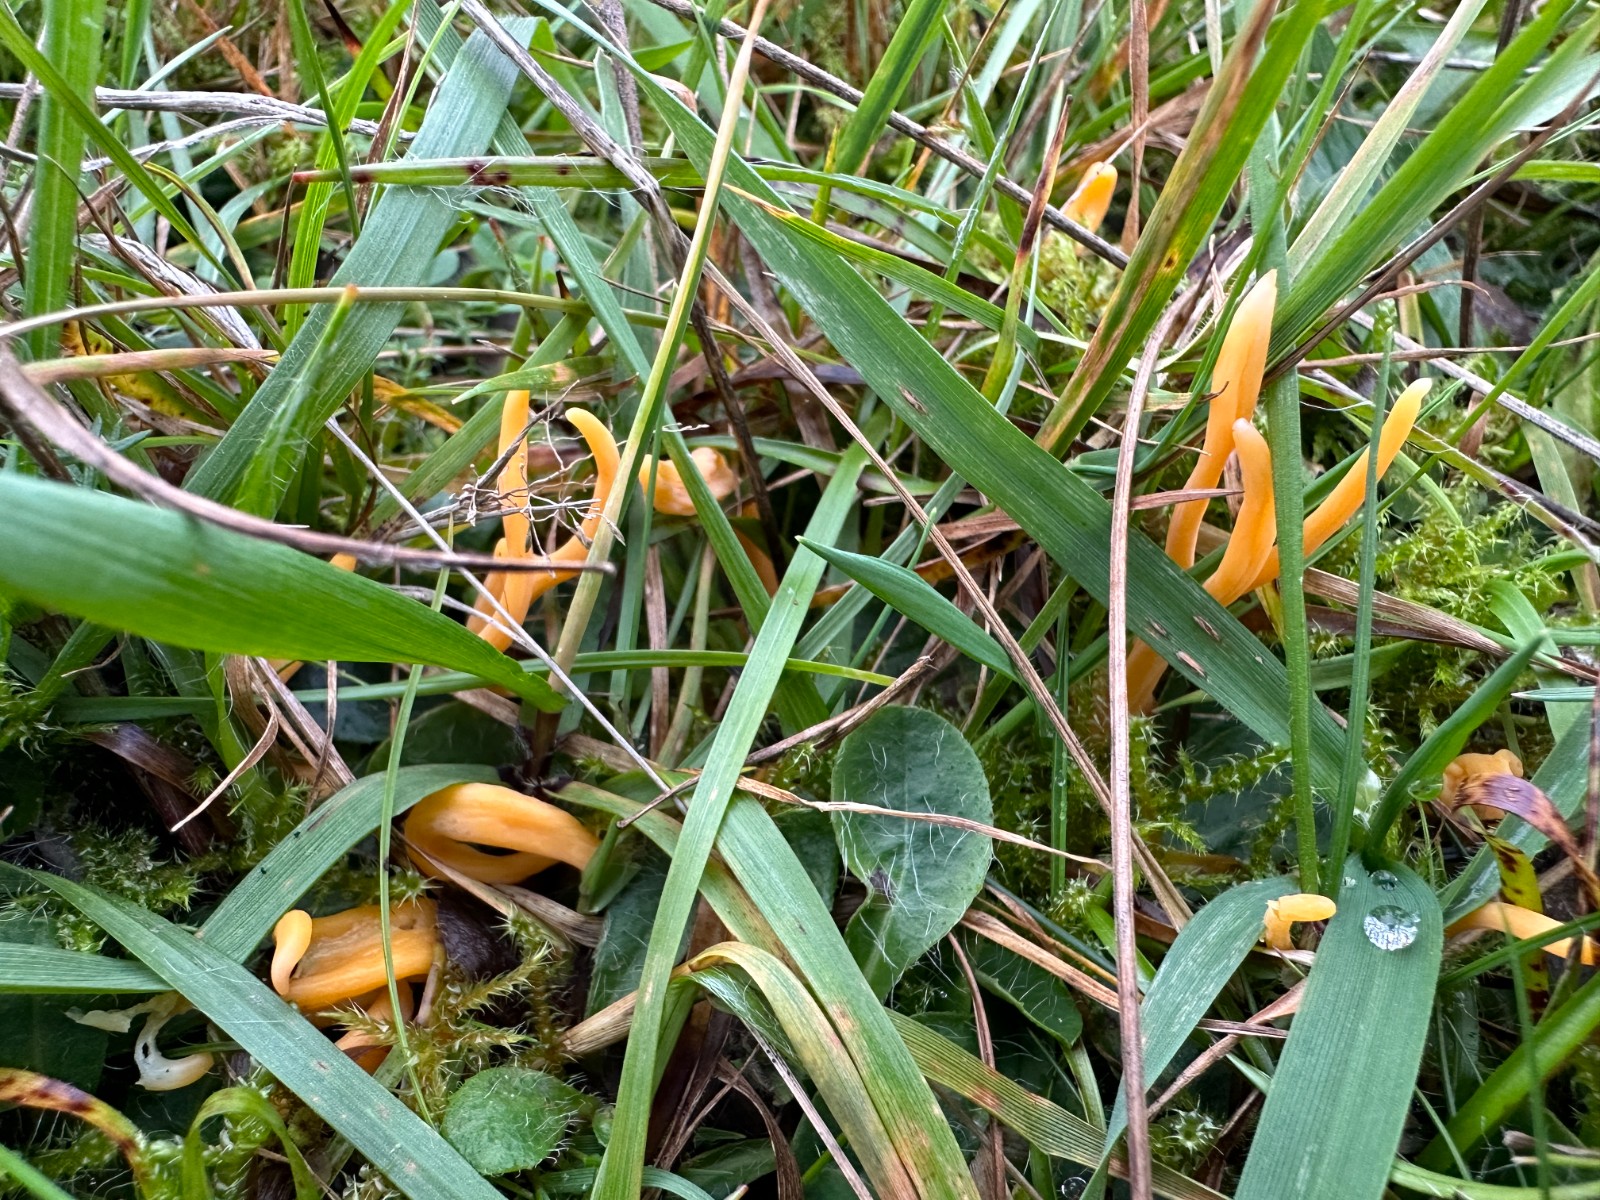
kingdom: Fungi
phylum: Basidiomycota
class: Agaricomycetes
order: Agaricales
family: Clavariaceae
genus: Clavulinopsis
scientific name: Clavulinopsis luteoalba
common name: abrikos-køllesvamp
